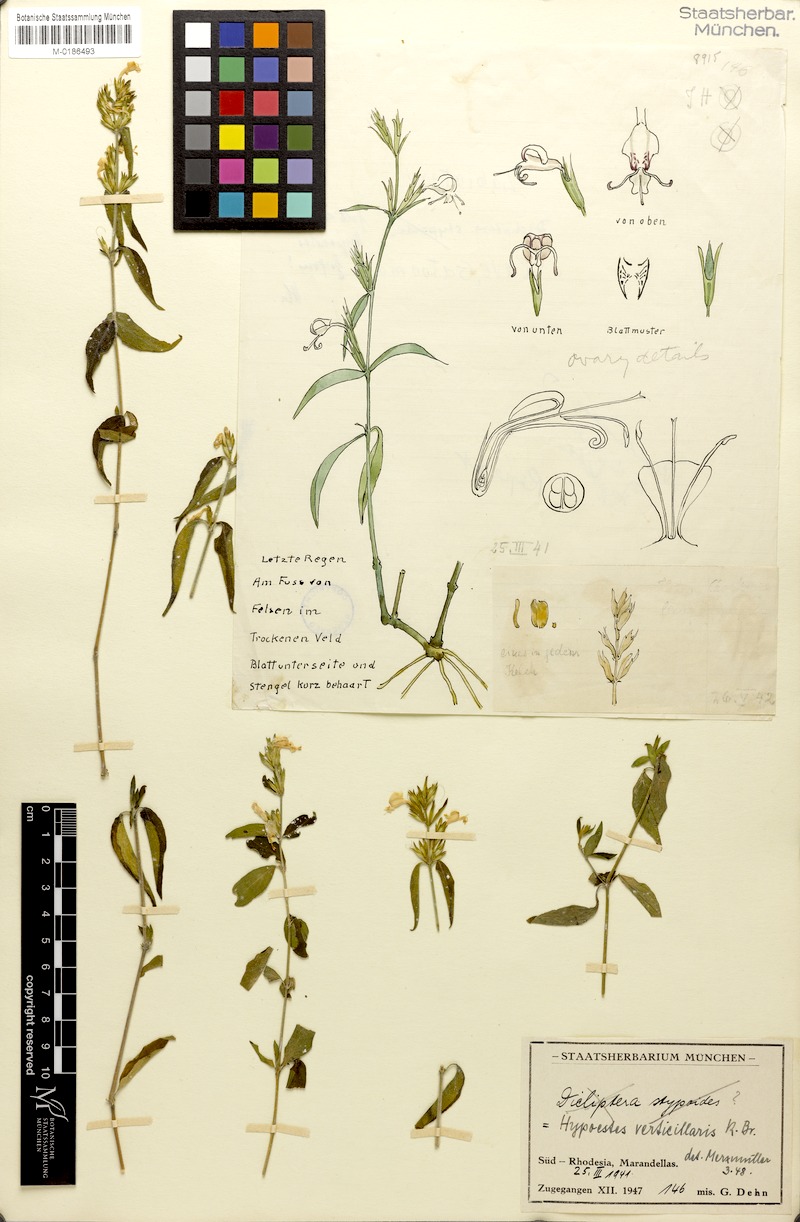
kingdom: Plantae
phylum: Tracheophyta
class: Magnoliopsida
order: Lamiales
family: Acanthaceae
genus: Hypoestes
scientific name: Hypoestes verticillaris
